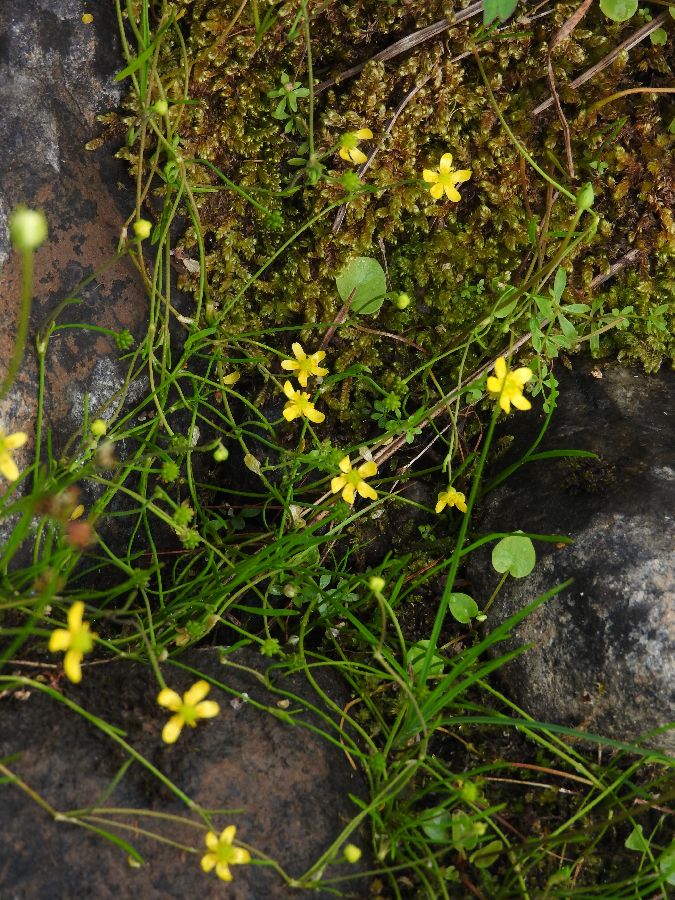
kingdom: Plantae
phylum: Tracheophyta
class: Magnoliopsida
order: Ranunculales
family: Ranunculaceae
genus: Ranunculus
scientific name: Ranunculus reptans
